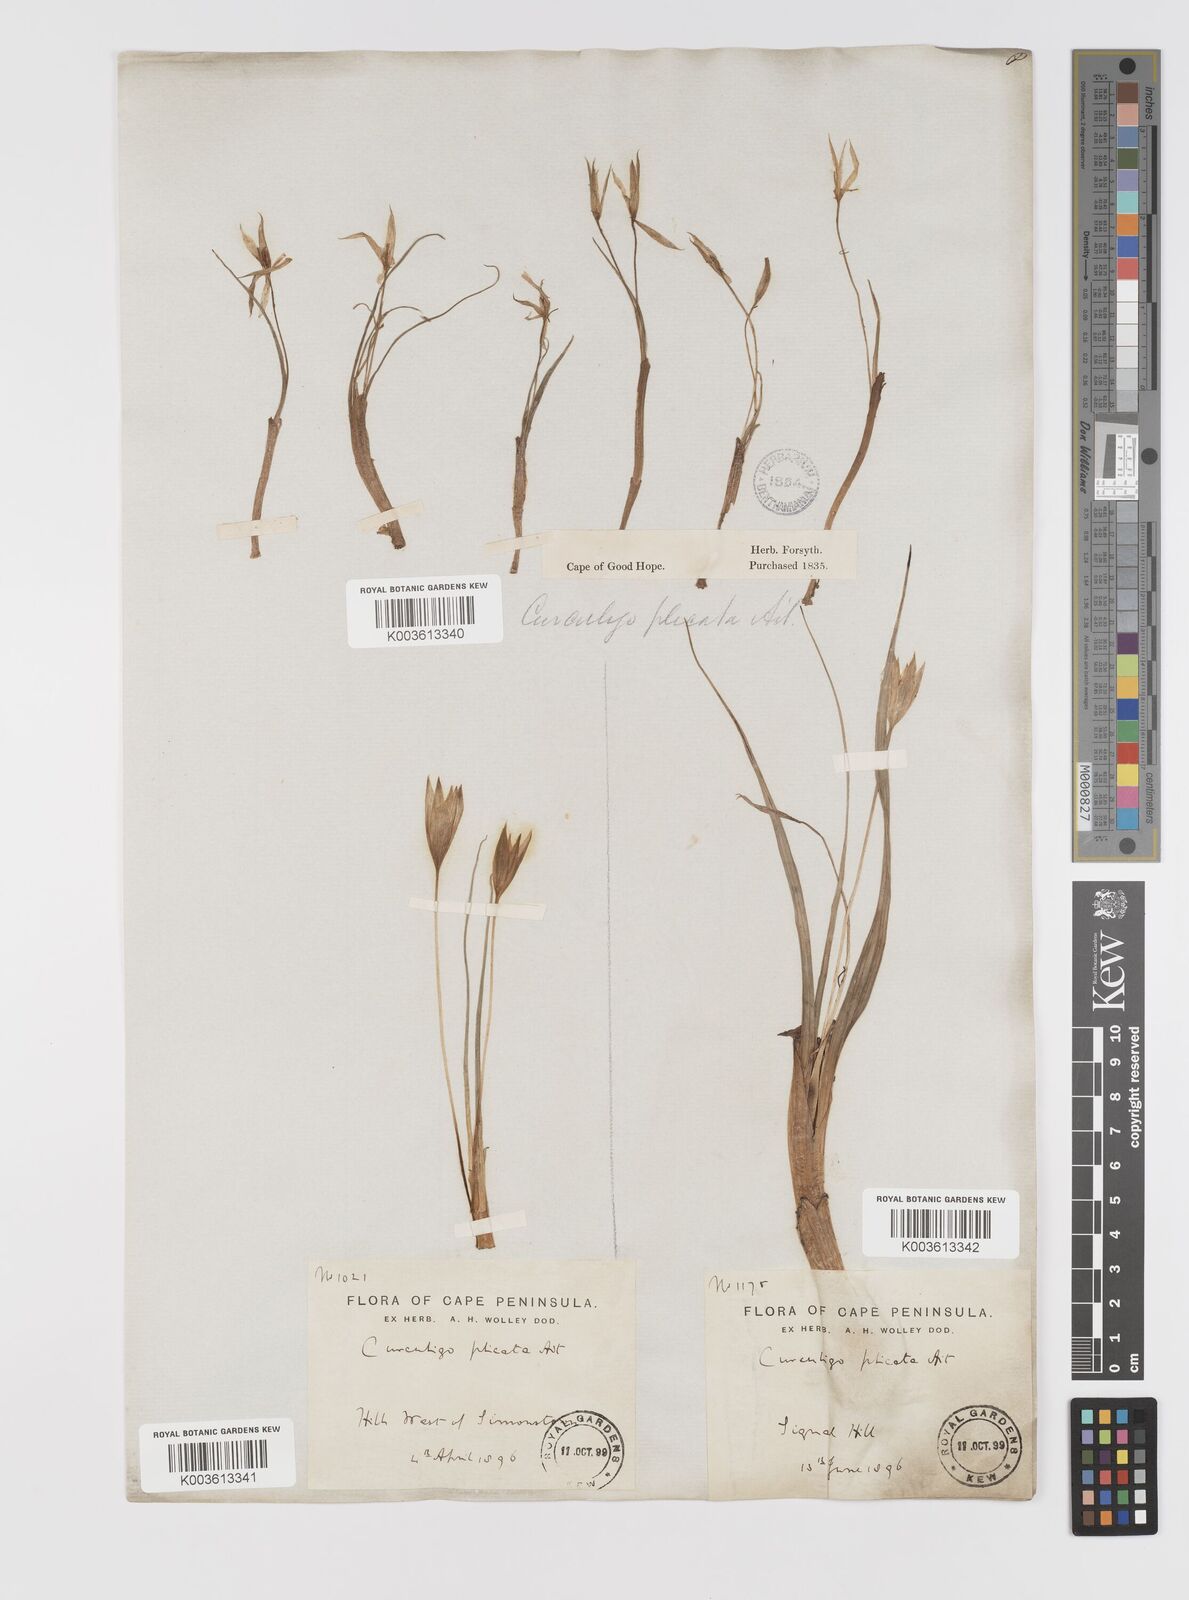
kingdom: Plantae
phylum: Tracheophyta
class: Liliopsida
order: Asparagales
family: Hypoxidaceae
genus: Empodium
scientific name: Empodium plicatum
